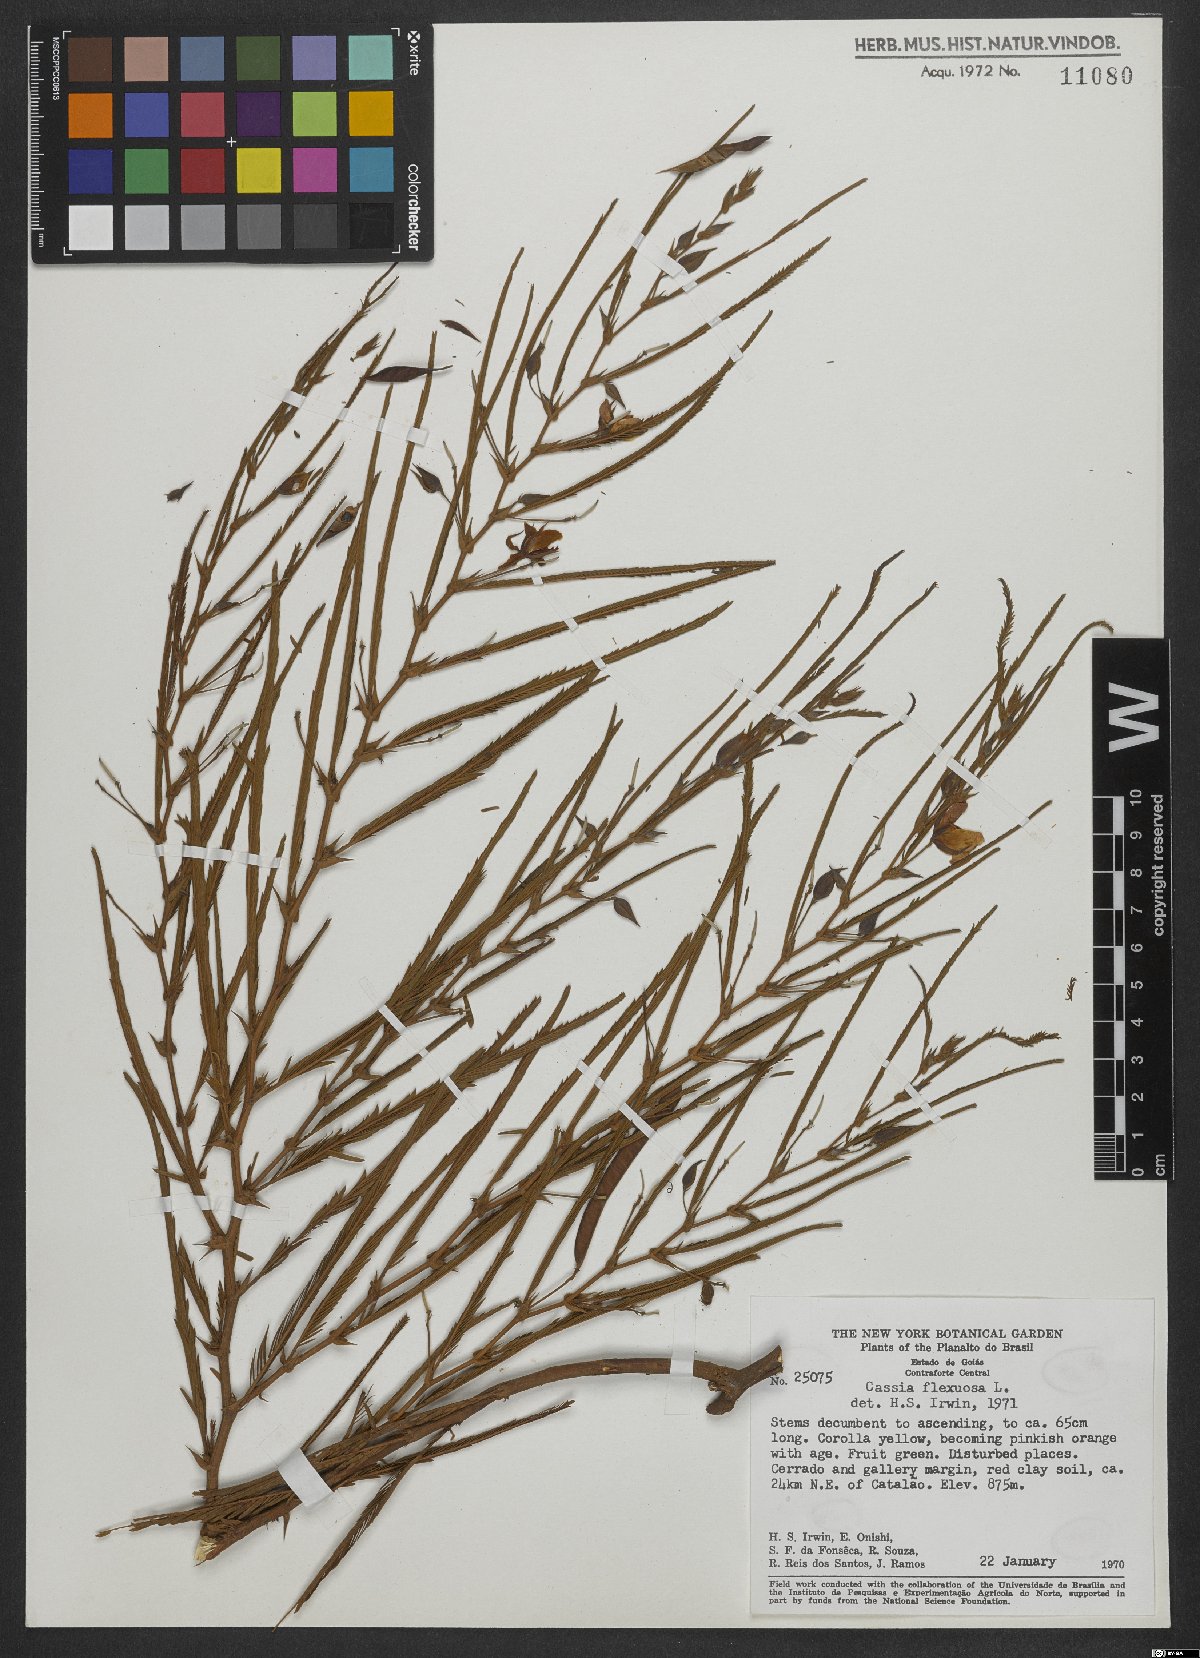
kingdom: Plantae
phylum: Tracheophyta
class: Magnoliopsida
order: Fabales
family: Fabaceae
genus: Chamaecrista
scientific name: Chamaecrista flexuosa
